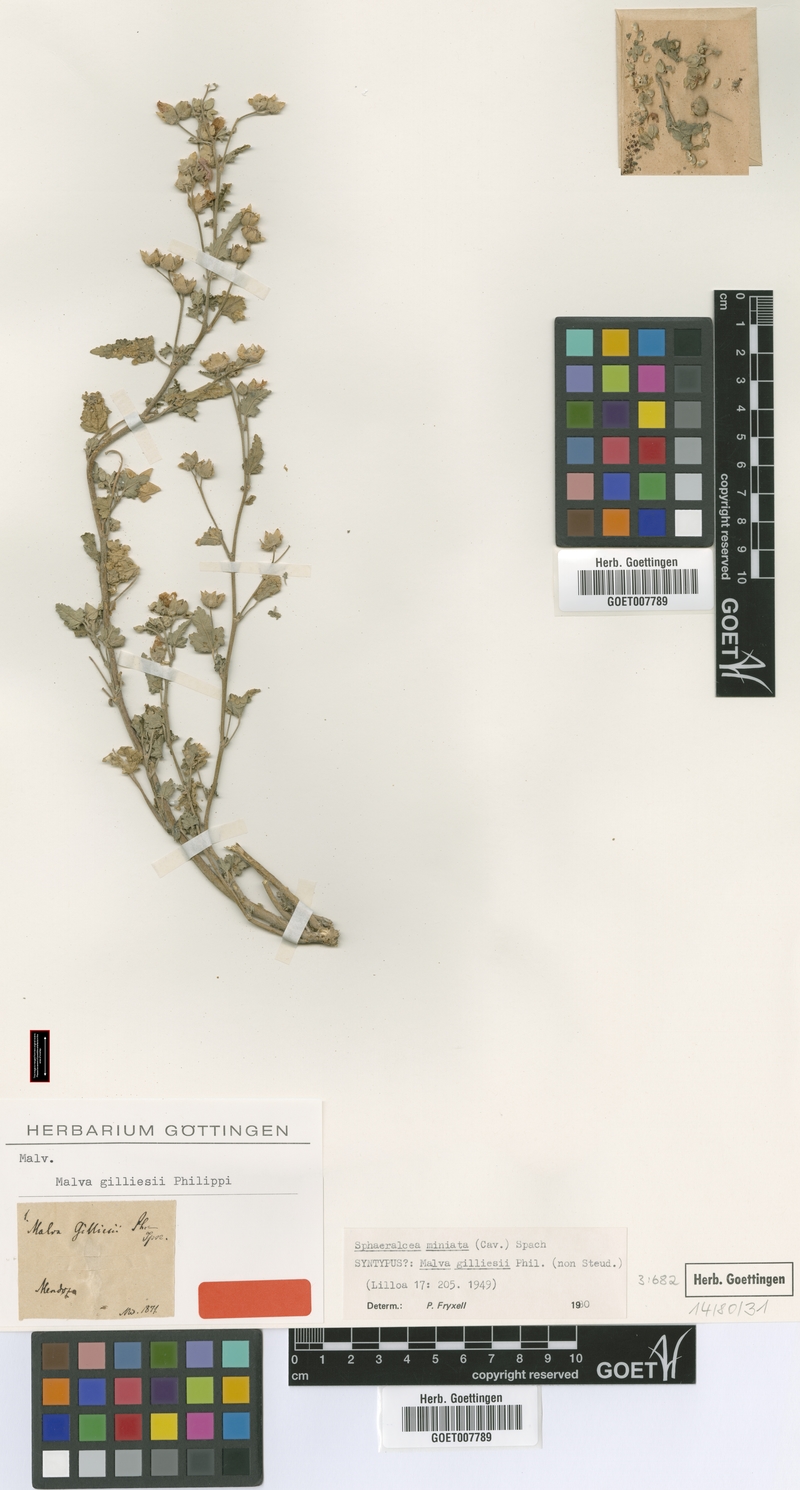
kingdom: Plantae
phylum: Tracheophyta
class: Magnoliopsida
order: Malvales
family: Malvaceae
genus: Sphaeralcea
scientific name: Sphaeralcea miniata
